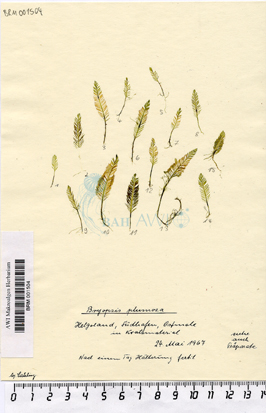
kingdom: Plantae
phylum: Chlorophyta
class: Ulvophyceae
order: Bryopsidales
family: Bryopsidaceae
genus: Bryopsis
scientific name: Bryopsis plumosa
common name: Hen pen
